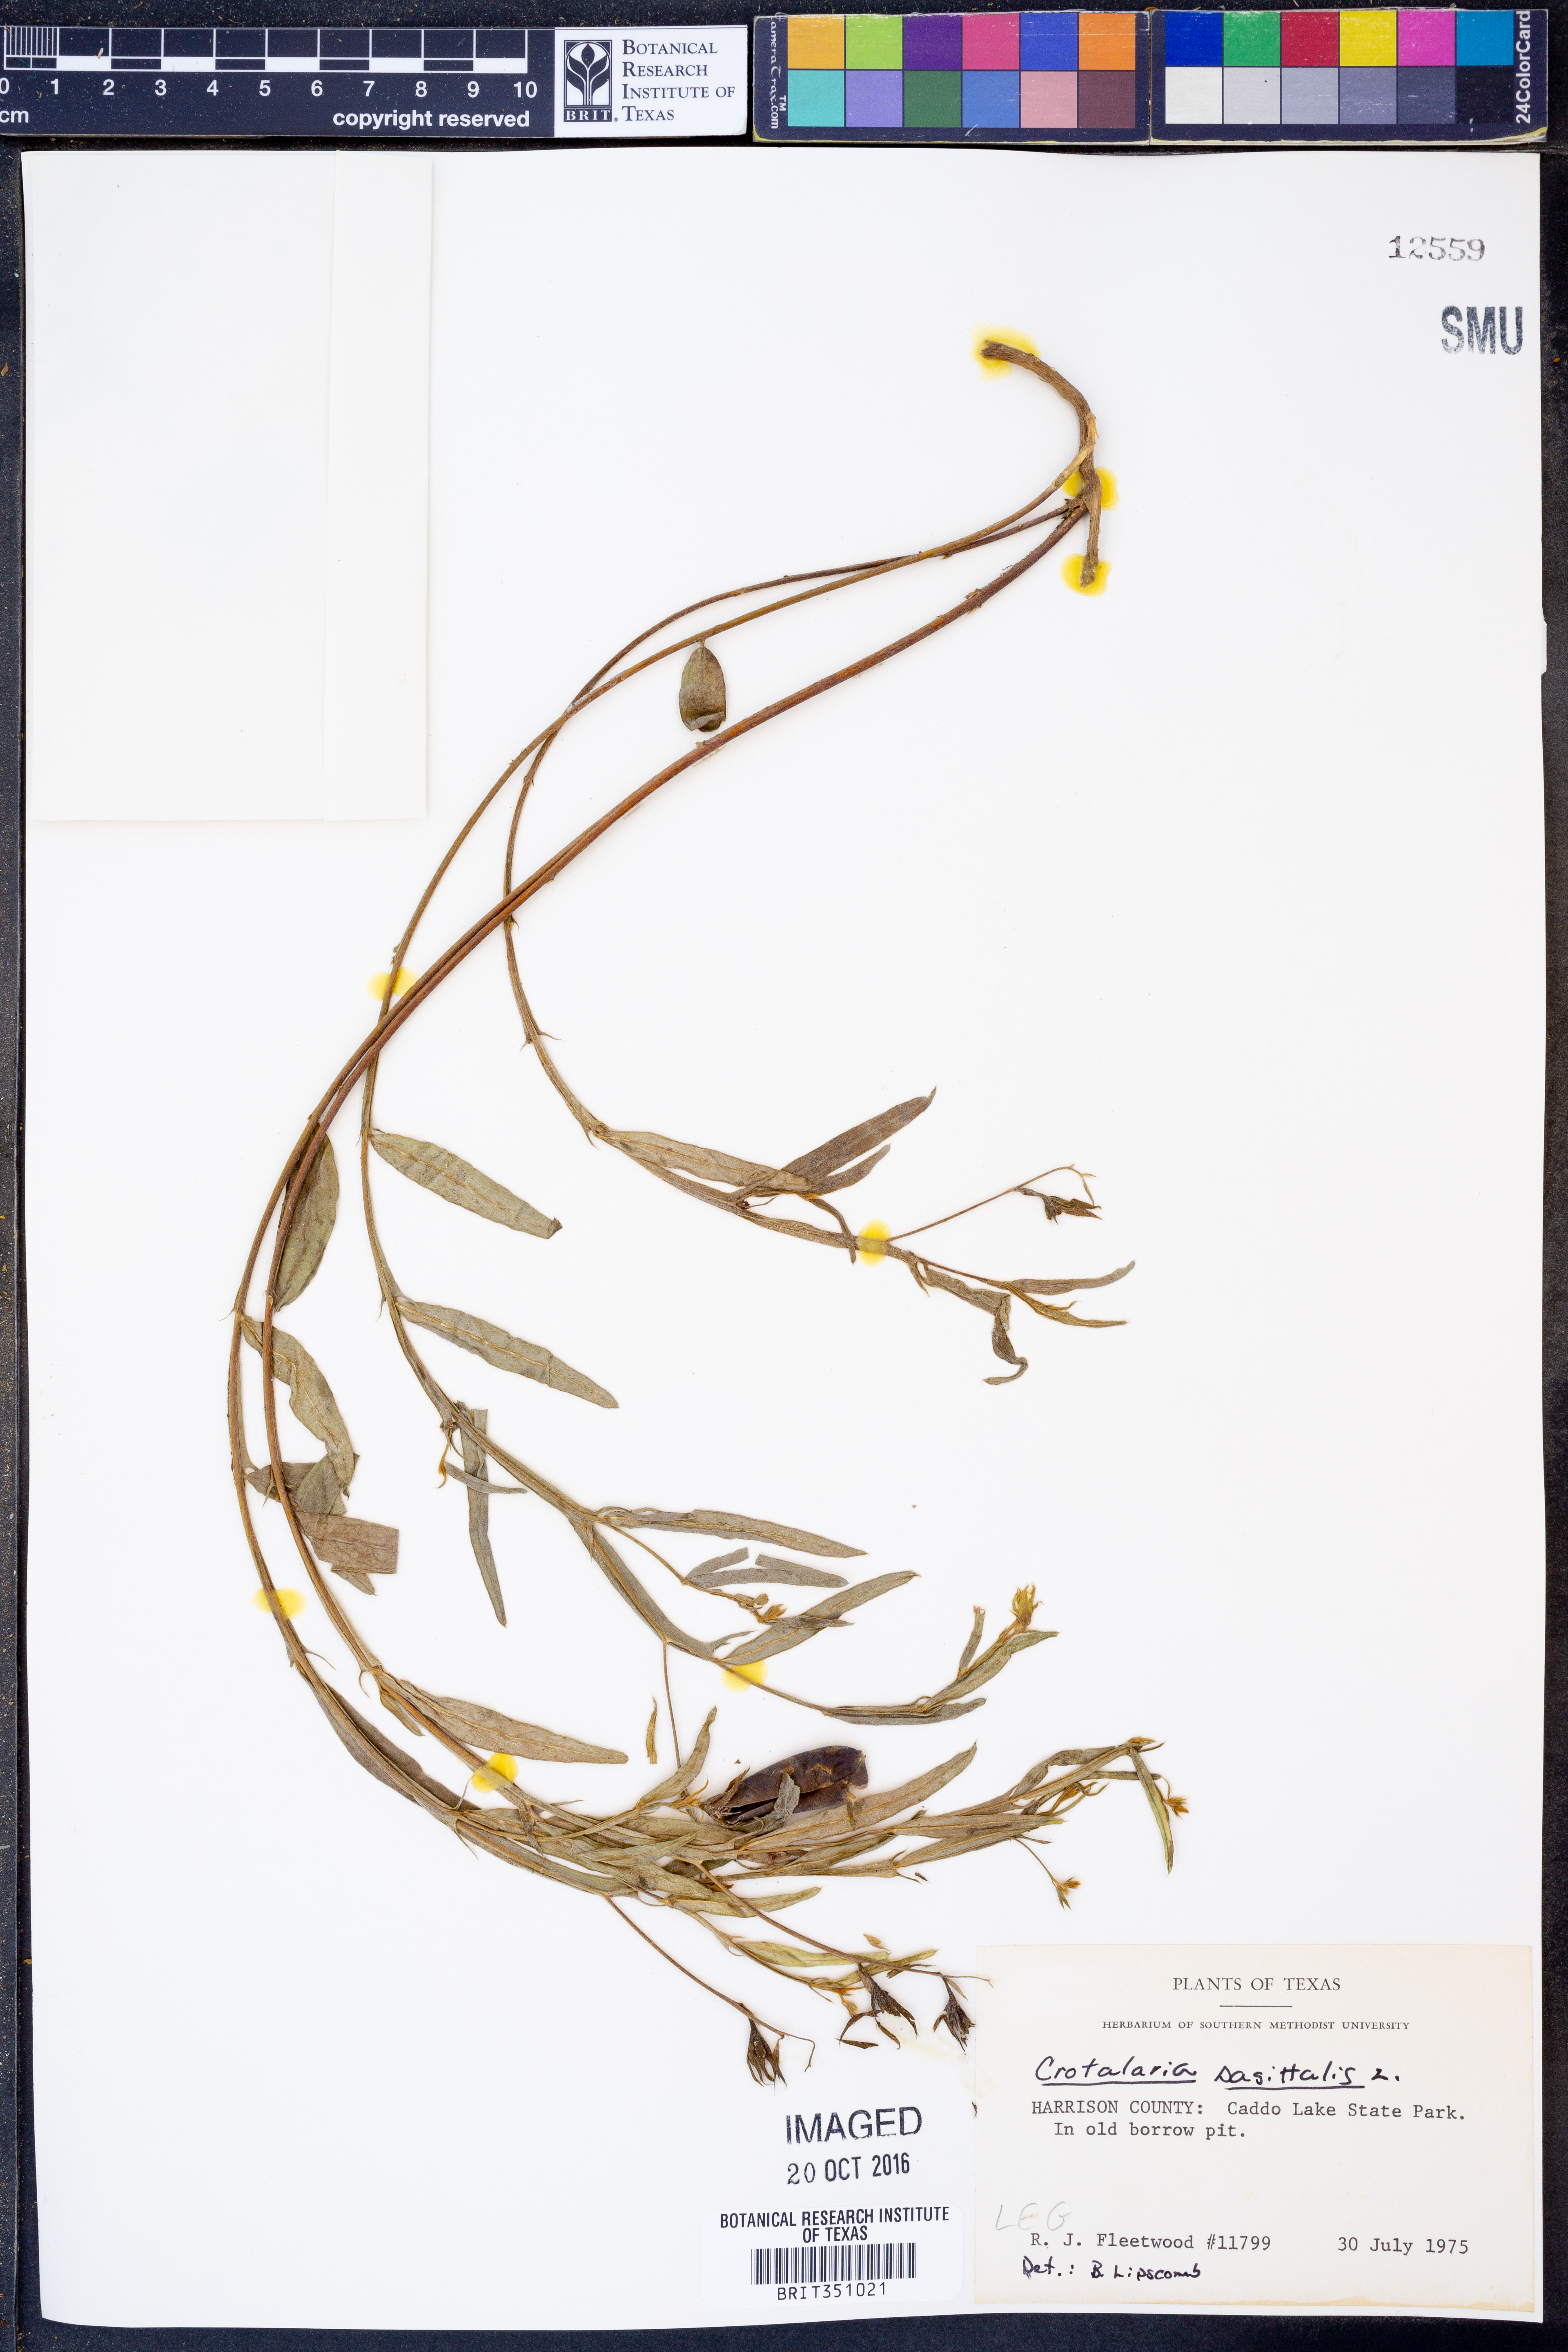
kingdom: Plantae
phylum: Tracheophyta
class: Magnoliopsida
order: Fabales
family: Fabaceae
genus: Crotalaria
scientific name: Crotalaria sagittalis
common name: Arrowhead rattlebox
